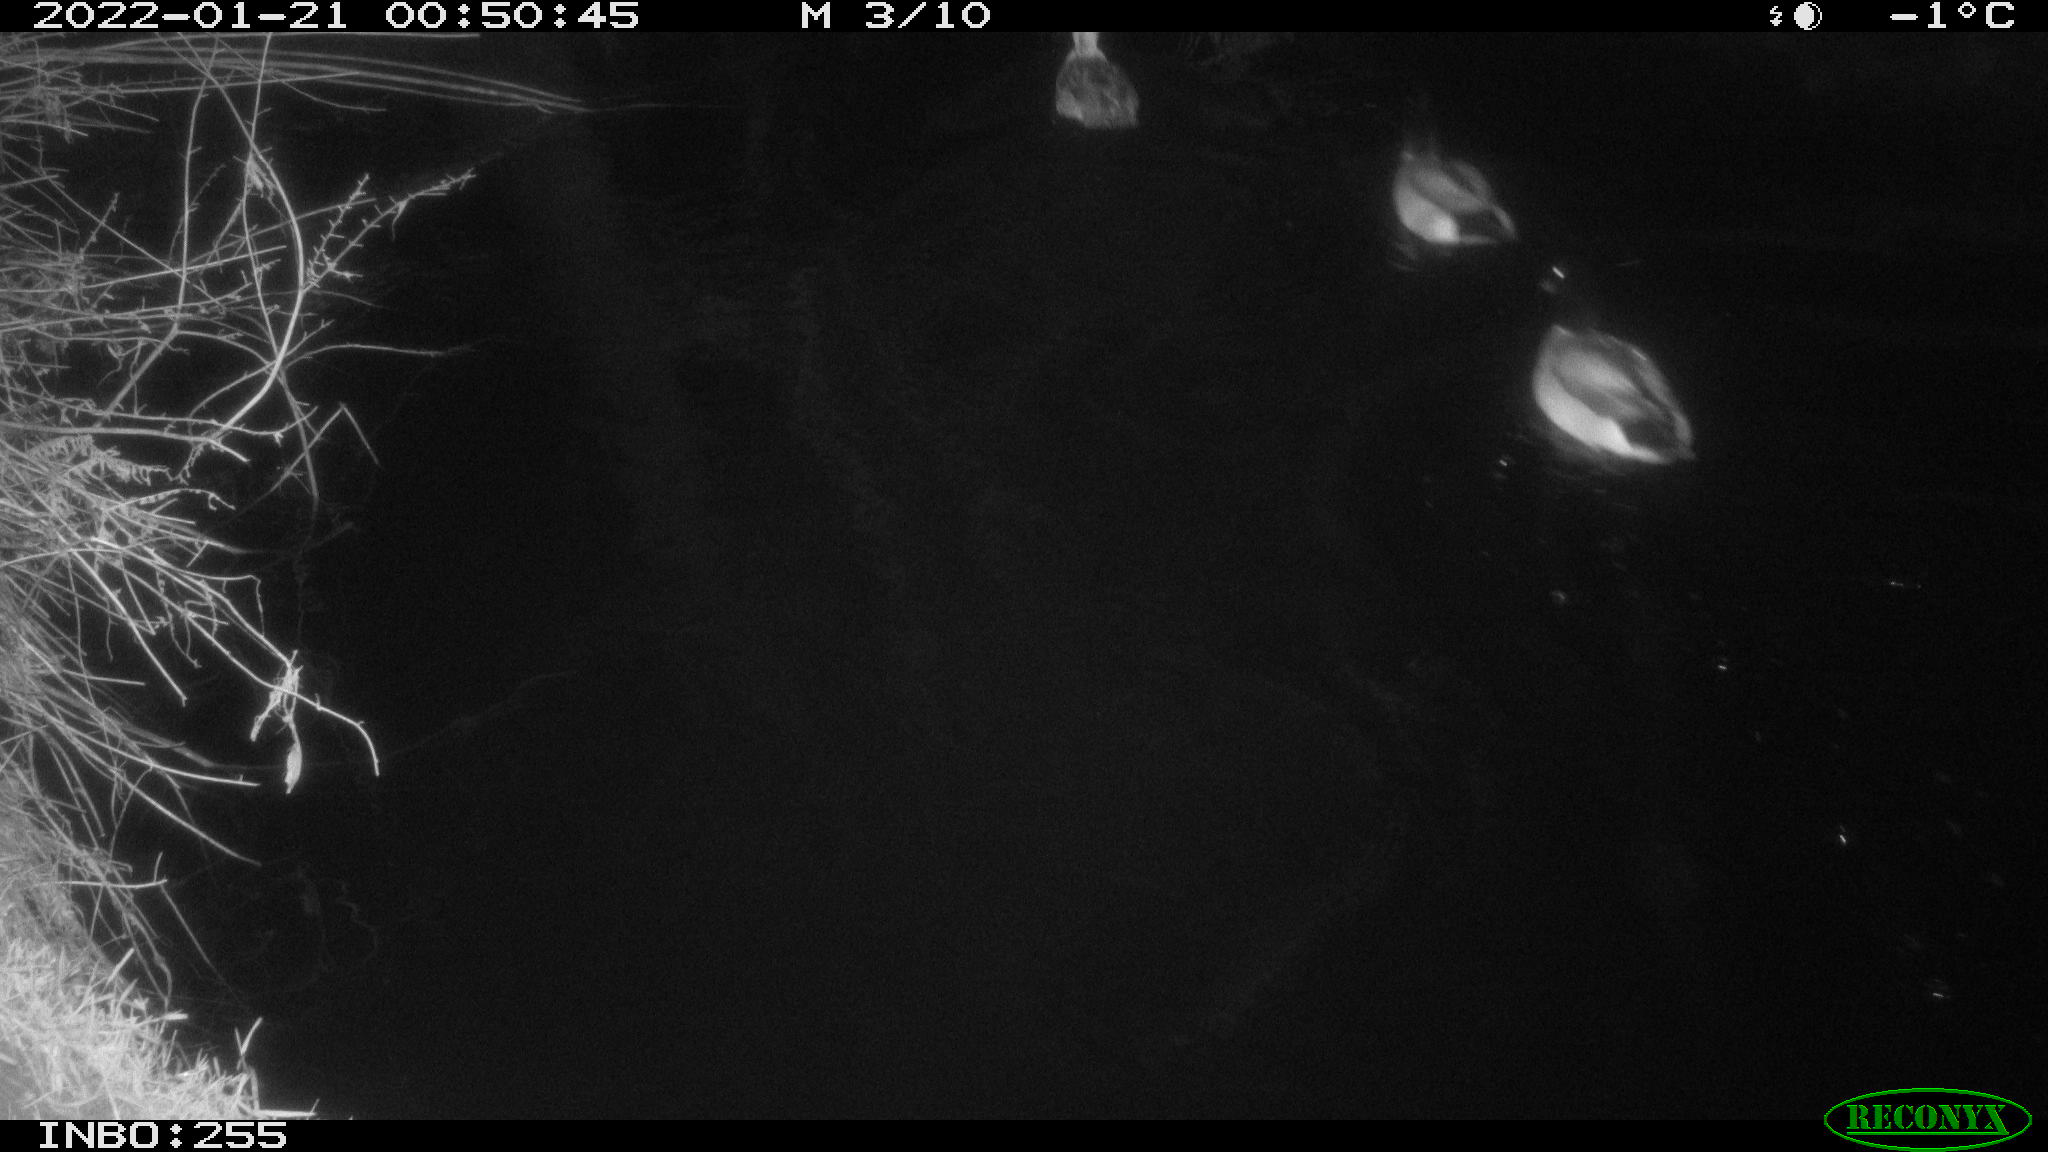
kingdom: Animalia
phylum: Chordata
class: Aves
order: Anseriformes
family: Anatidae
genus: Anas
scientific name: Anas
